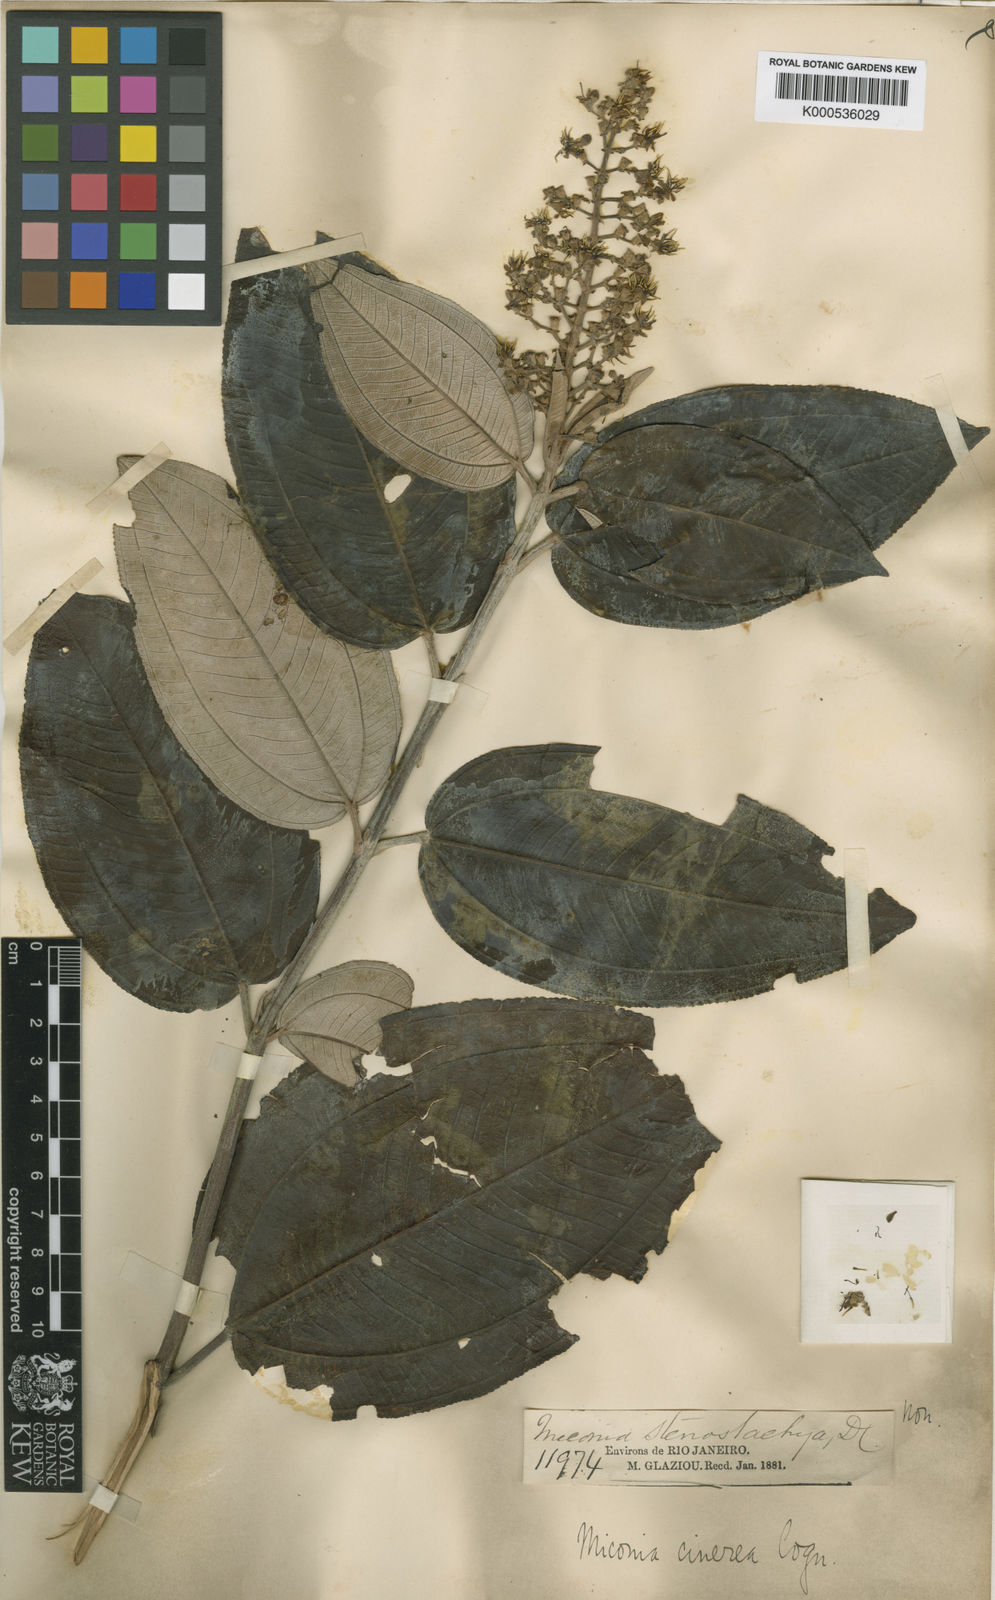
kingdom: Plantae
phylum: Tracheophyta
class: Magnoliopsida
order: Myrtales
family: Melastomataceae
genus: Miconia
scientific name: Miconia cinerea
